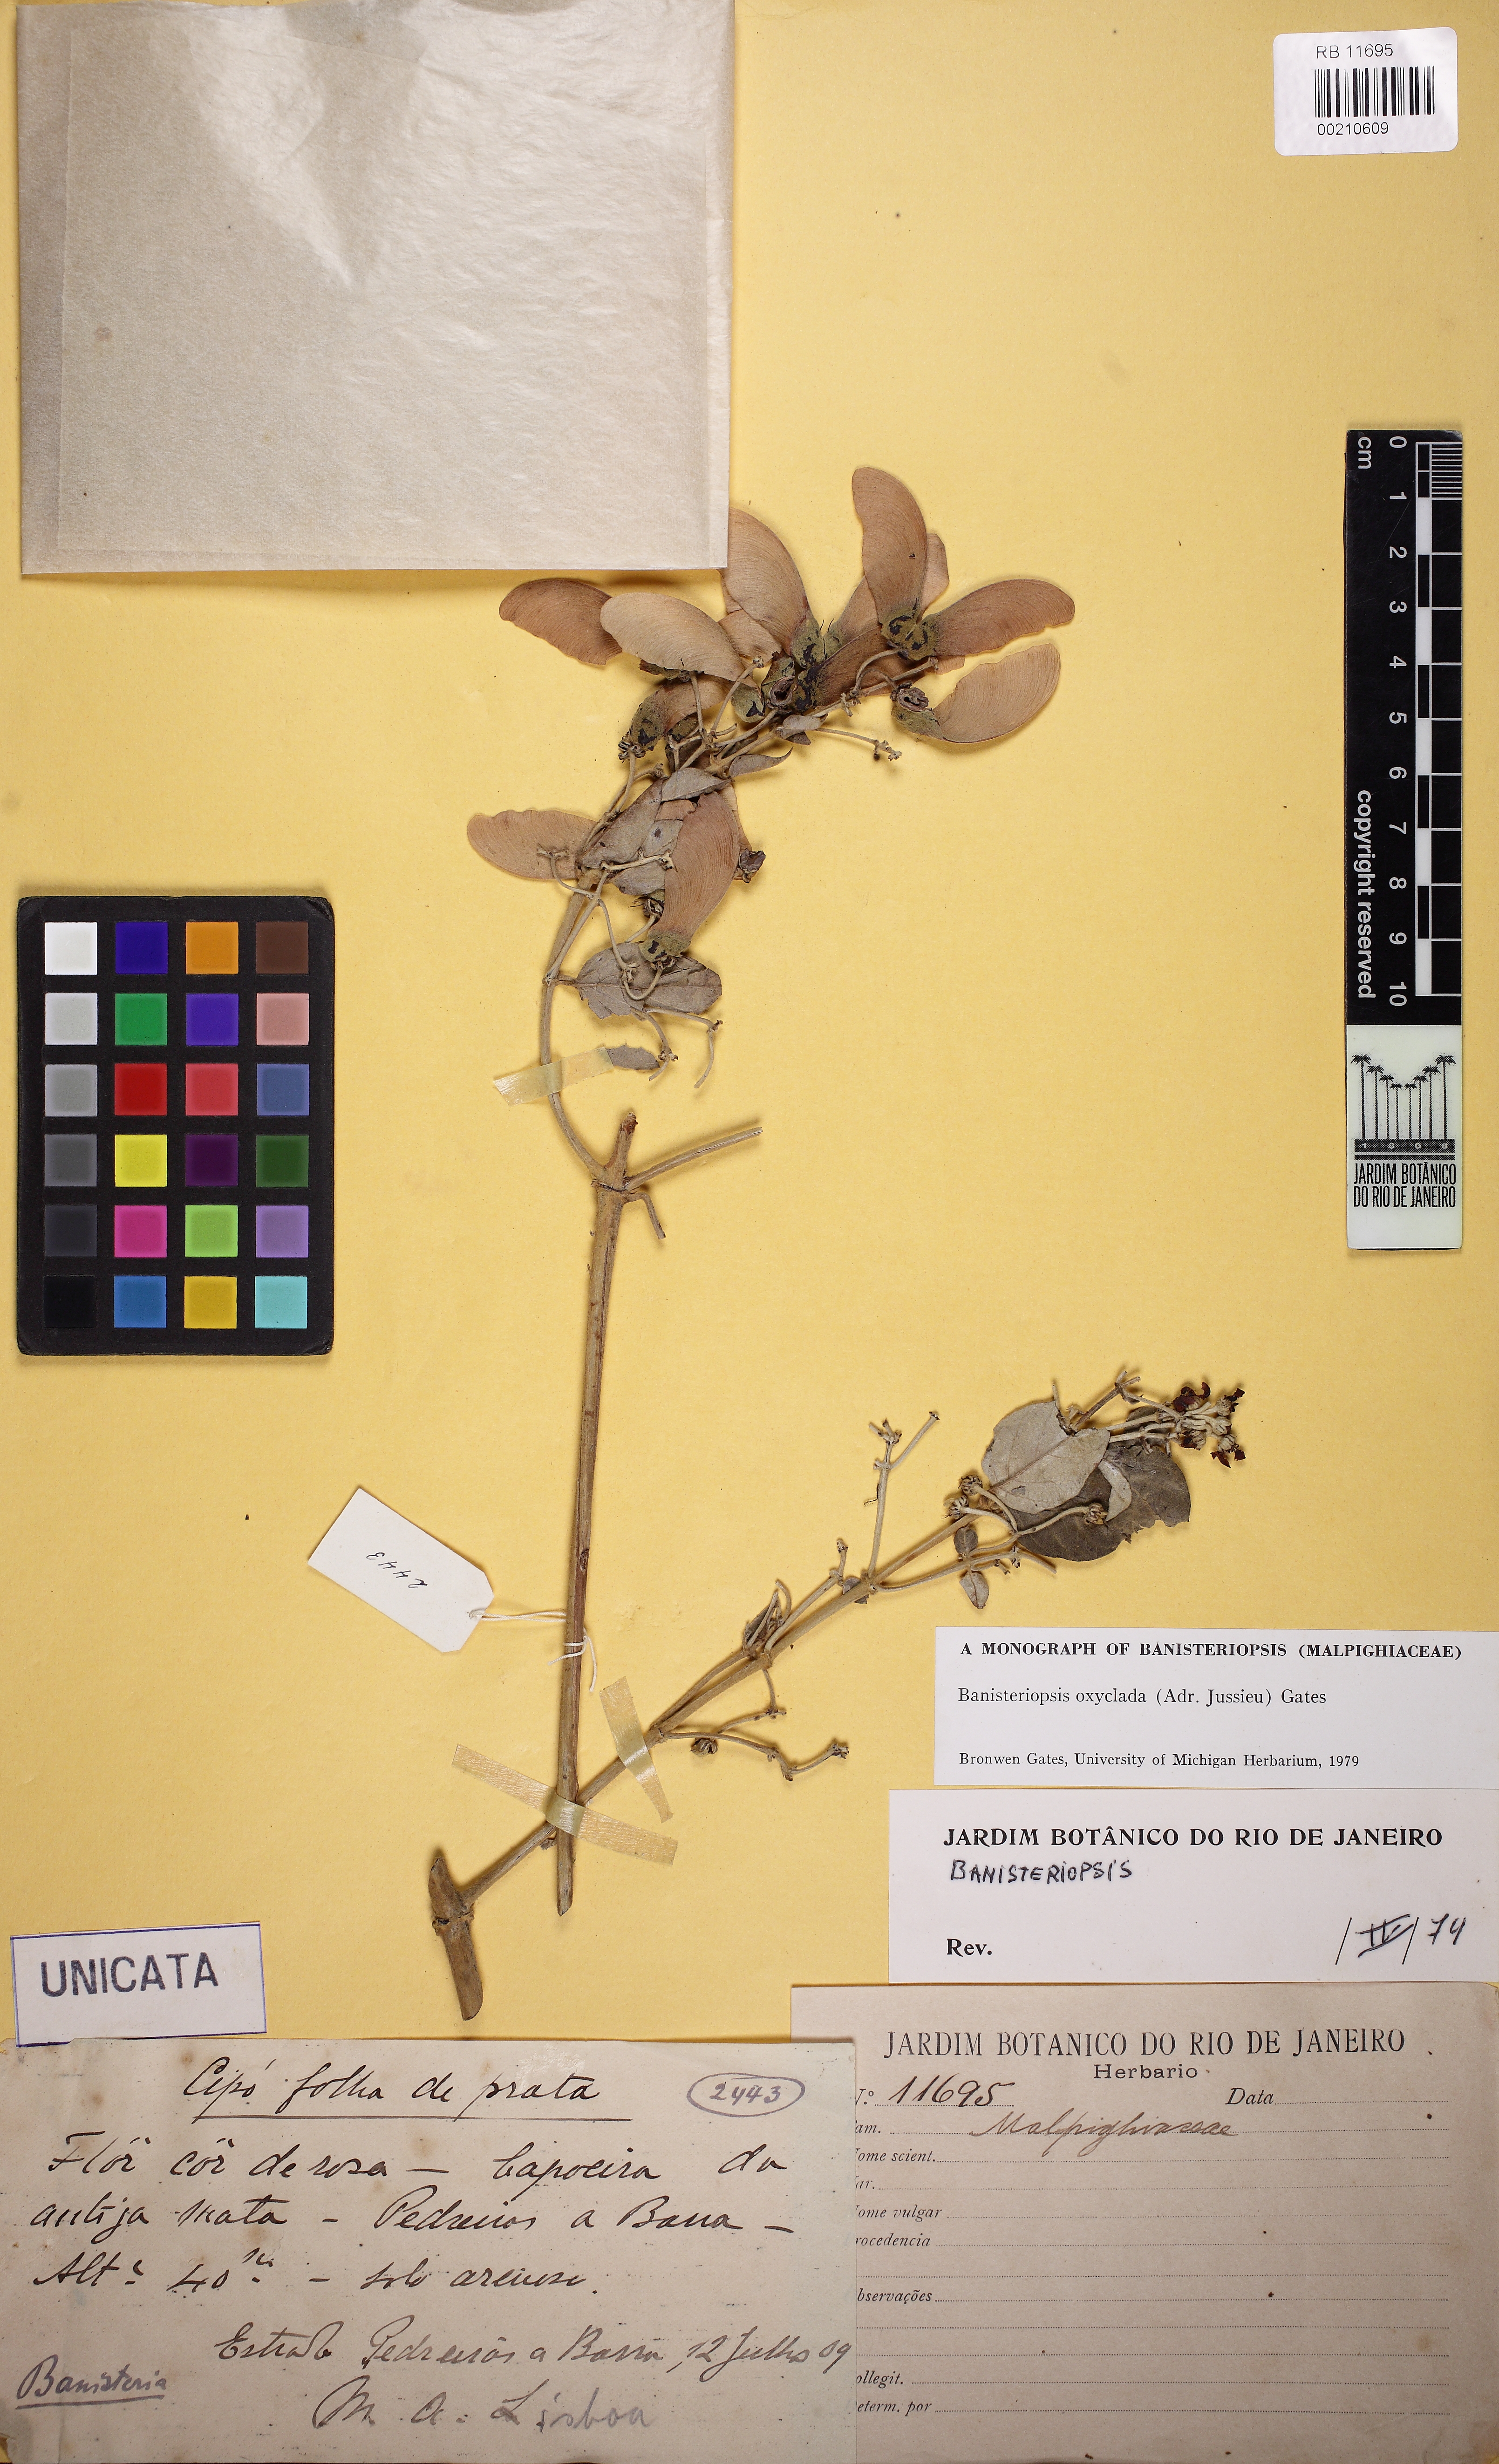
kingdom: Plantae
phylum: Tracheophyta
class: Magnoliopsida
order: Malpighiales
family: Malpighiaceae
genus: Banisteriopsis
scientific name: Banisteriopsis oxyclada
